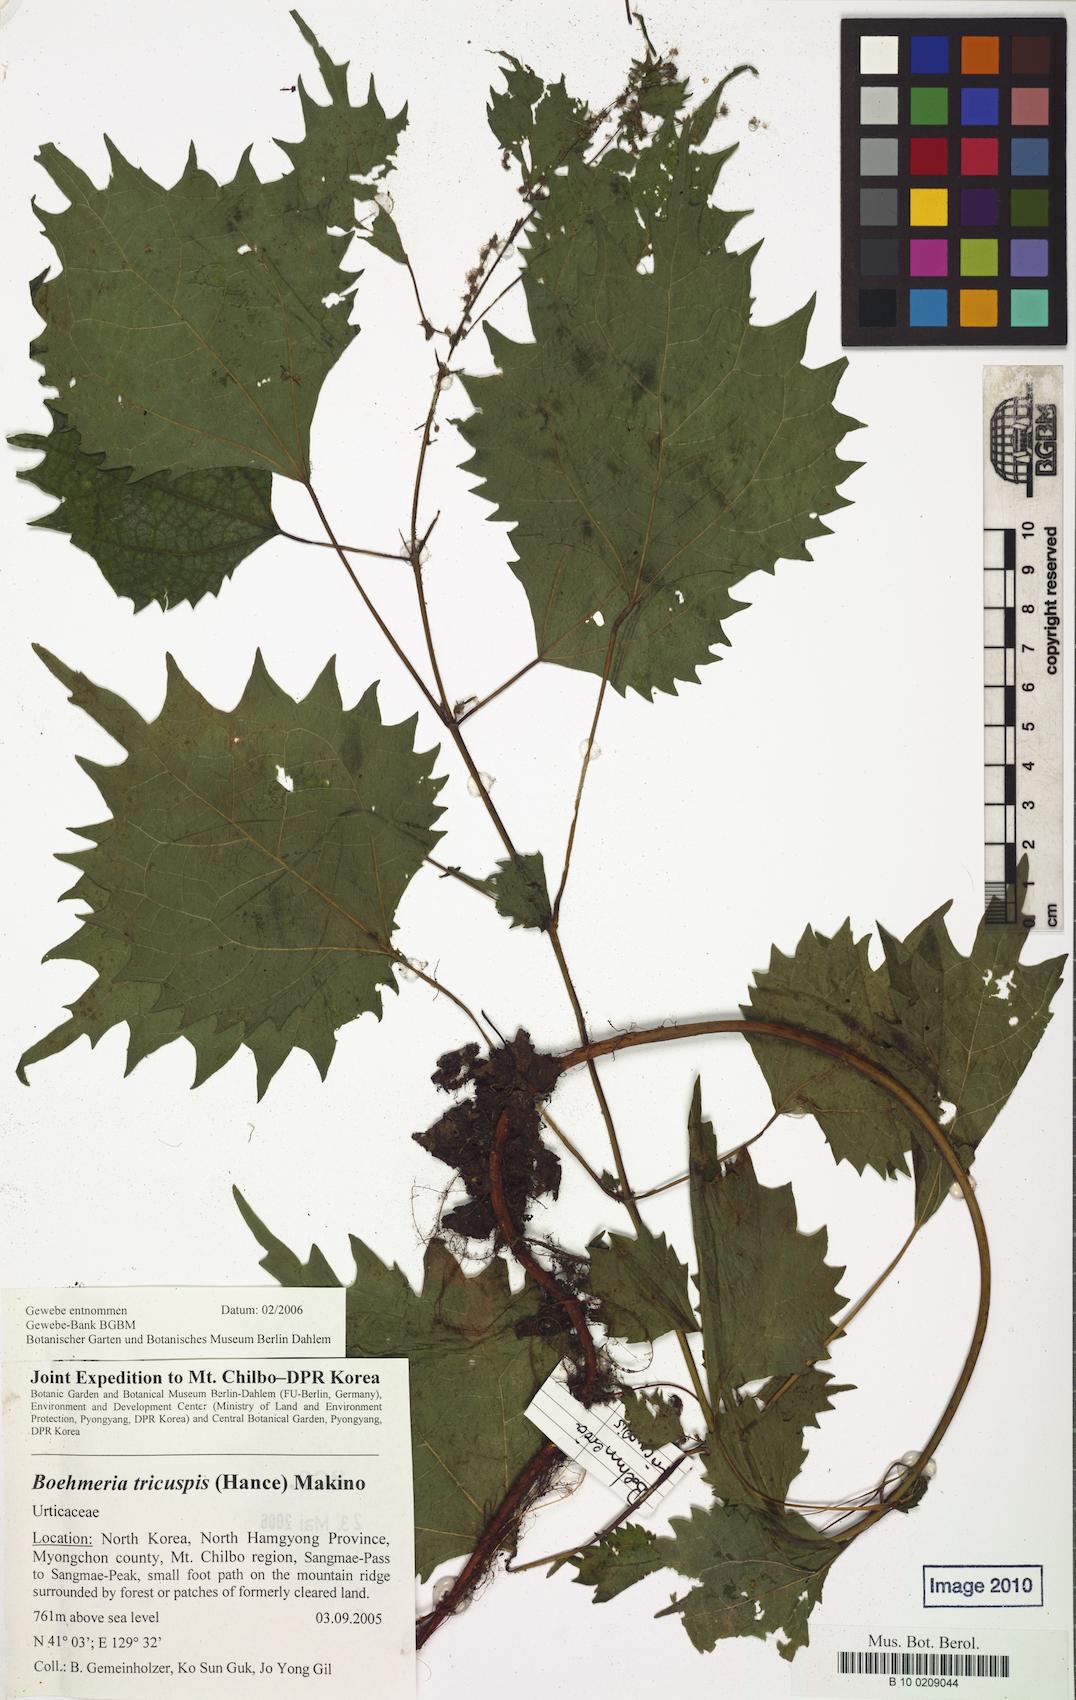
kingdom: Plantae
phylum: Tracheophyta
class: Magnoliopsida
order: Rosales
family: Urticaceae
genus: Boehmeria
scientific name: Boehmeria japonica
